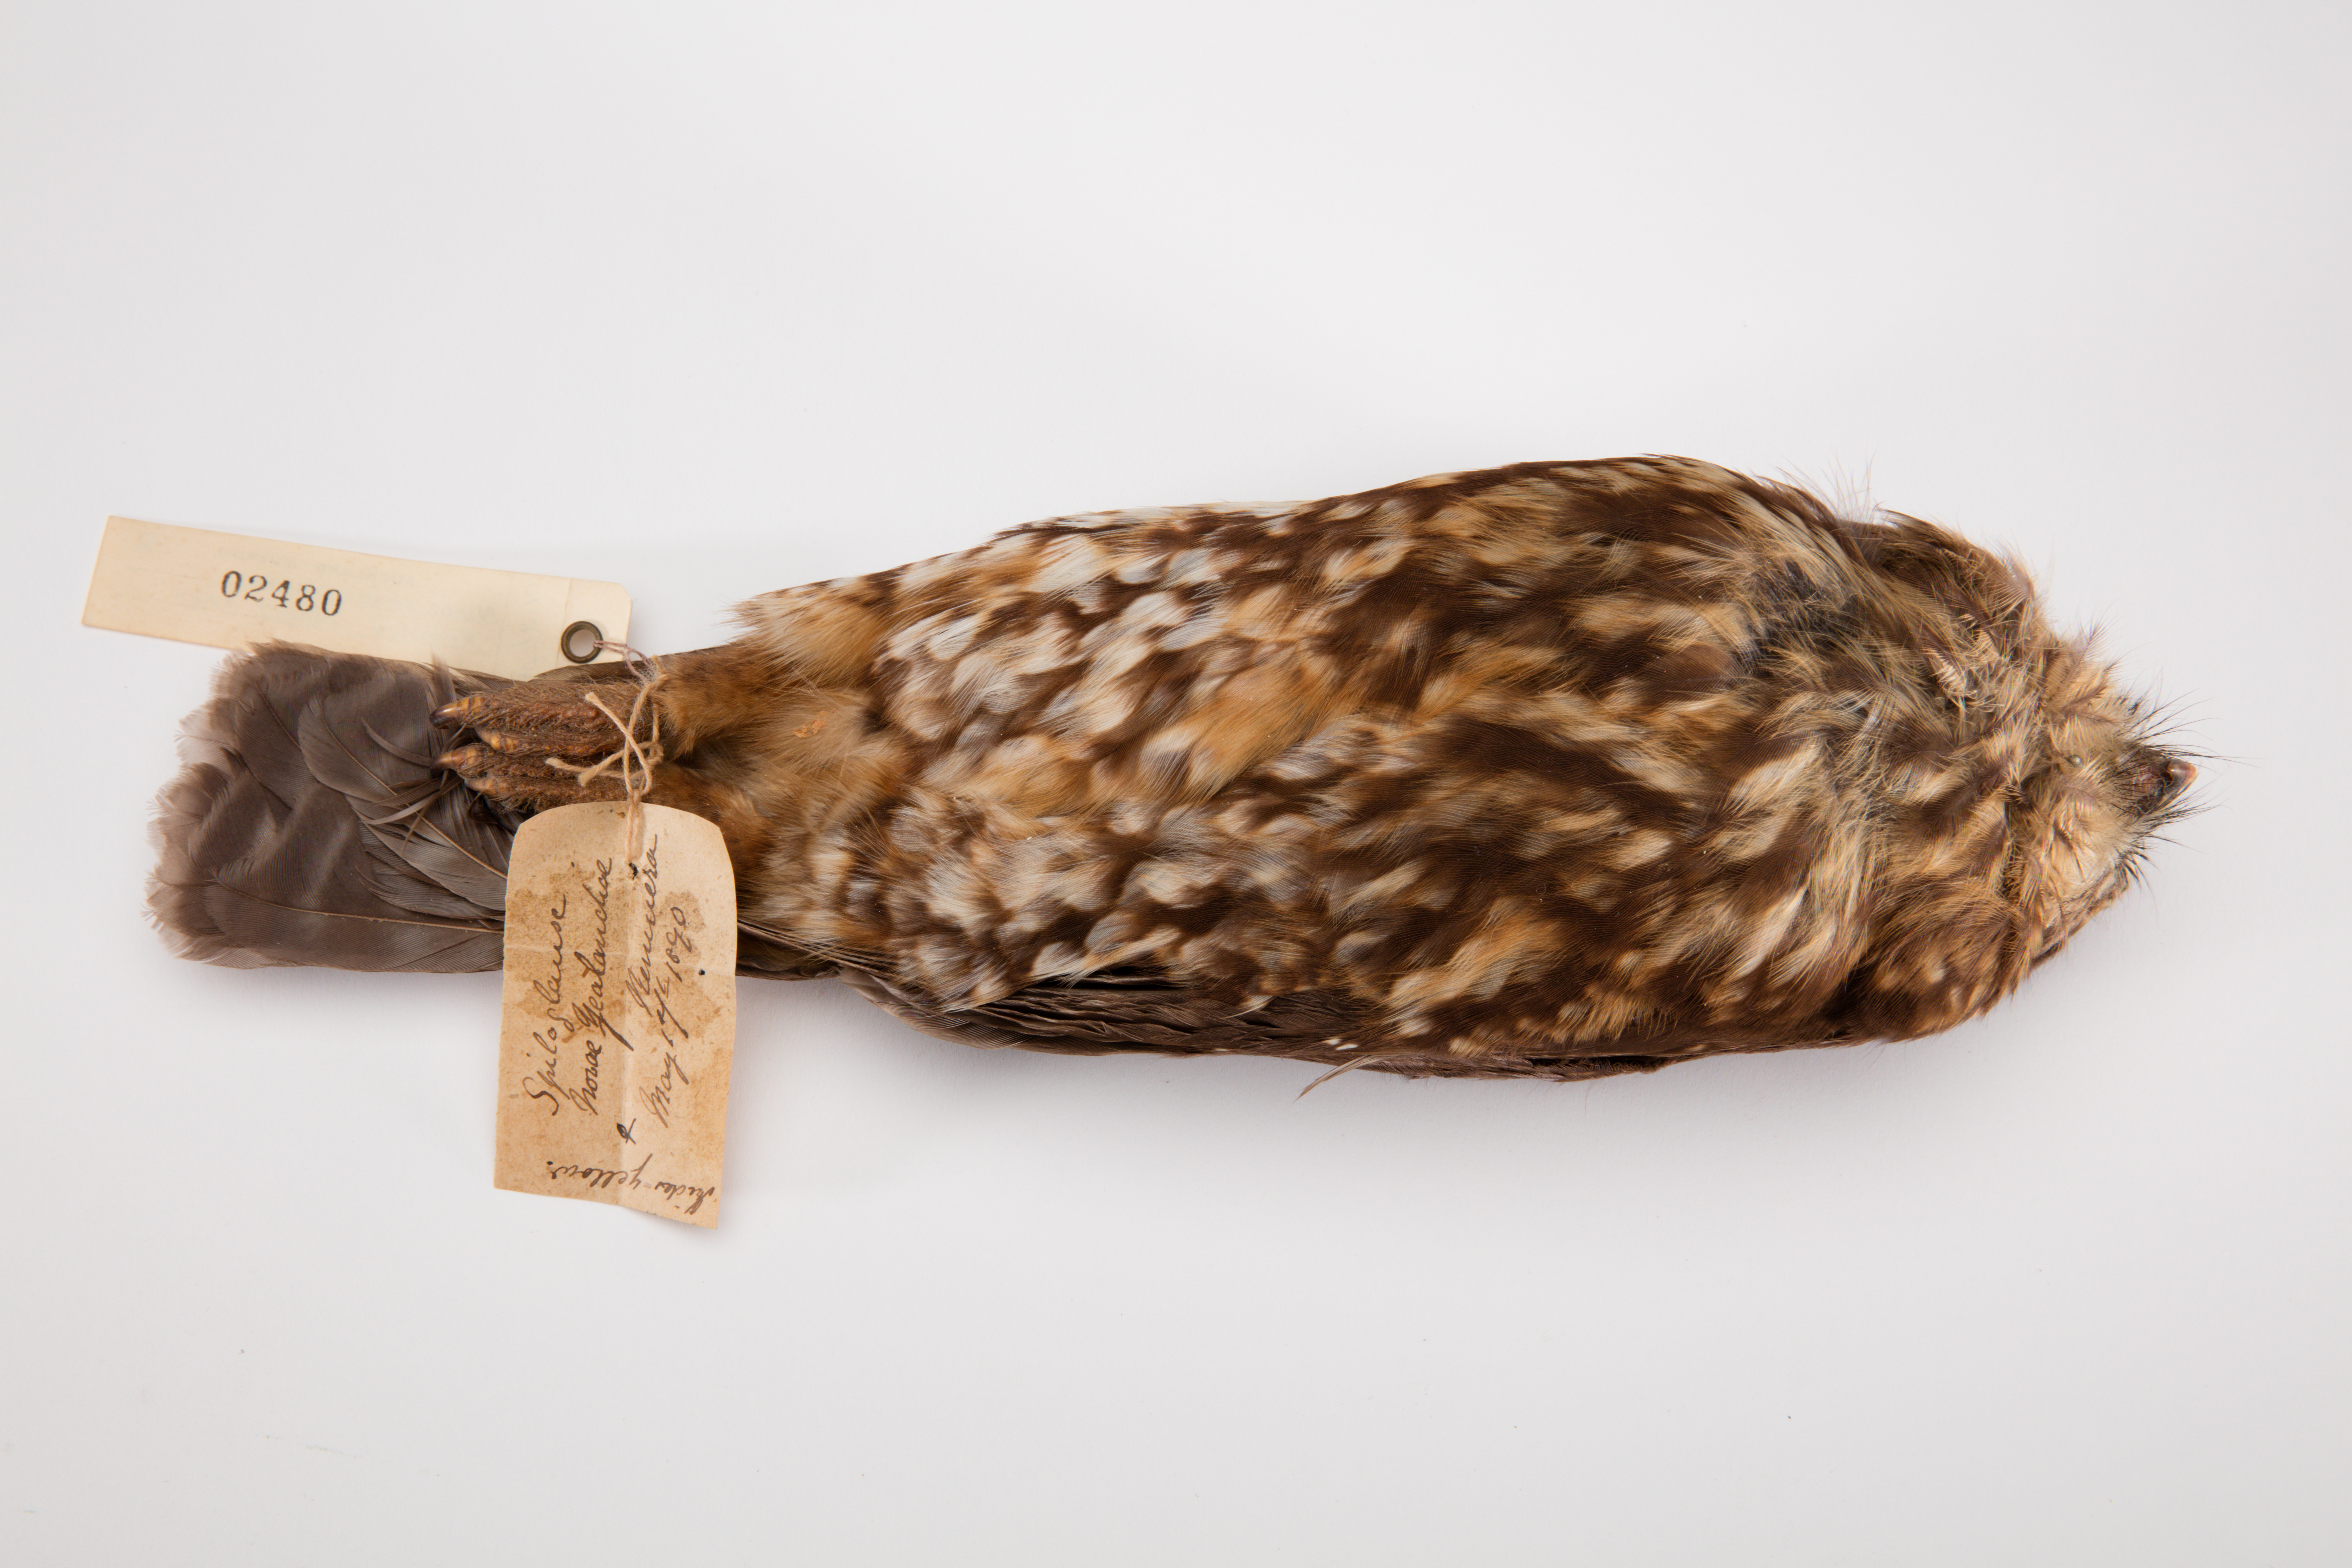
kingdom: Animalia
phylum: Chordata
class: Aves
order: Strigiformes
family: Strigidae
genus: Ninox
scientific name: Ninox novaeseelandiae
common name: Morepork
